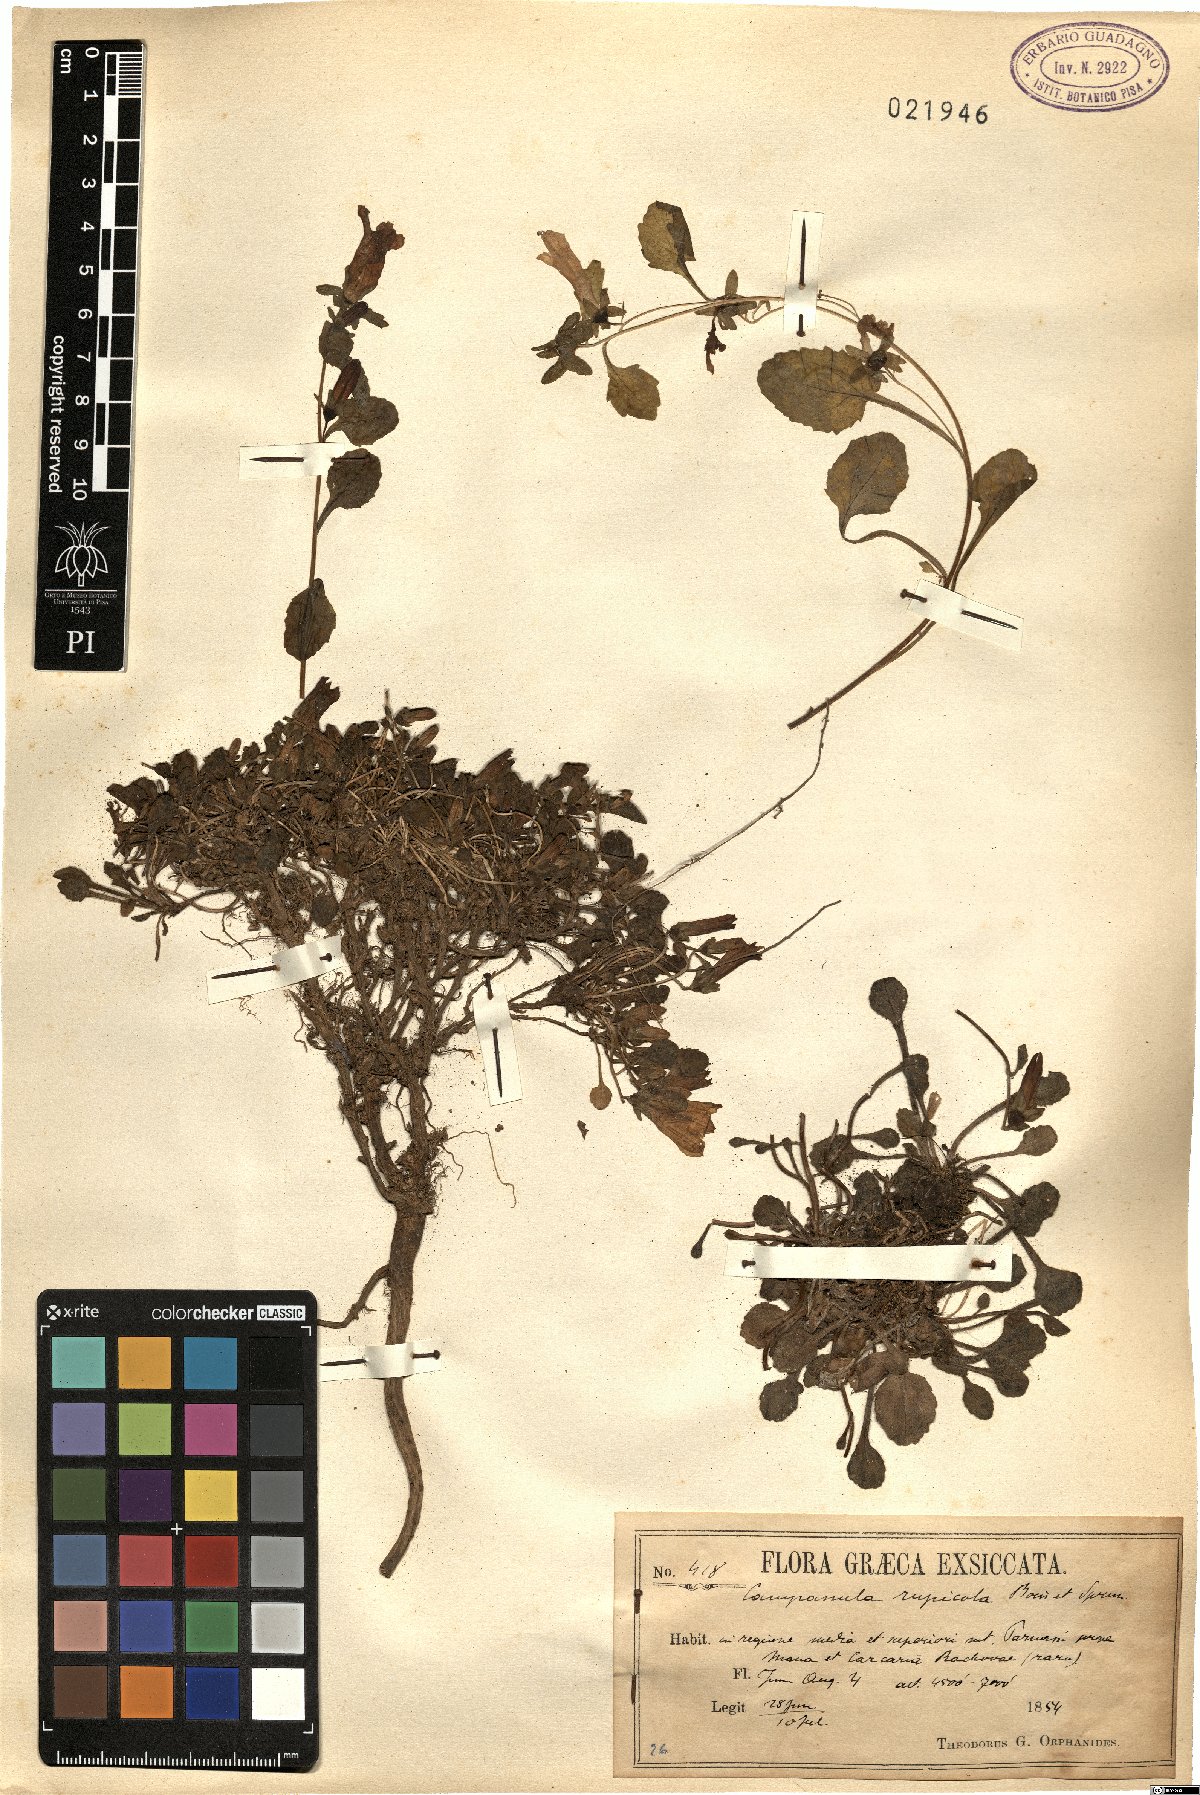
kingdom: Plantae
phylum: Tracheophyta
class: Magnoliopsida
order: Asterales
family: Campanulaceae
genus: Campanula
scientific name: Campanula rupicola
